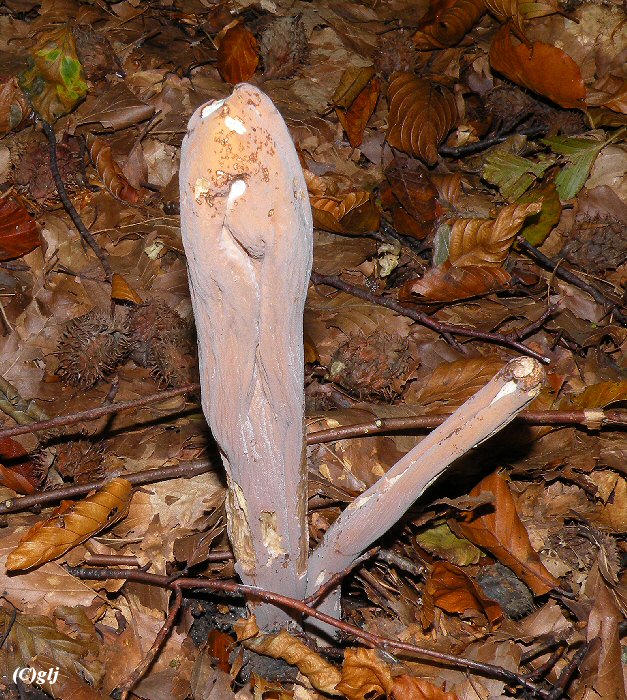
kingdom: Fungi
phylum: Basidiomycota
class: Agaricomycetes
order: Gomphales
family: Clavariadelphaceae
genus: Clavariadelphus
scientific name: Clavariadelphus pistillaris
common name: herkules-kæmpekølle
